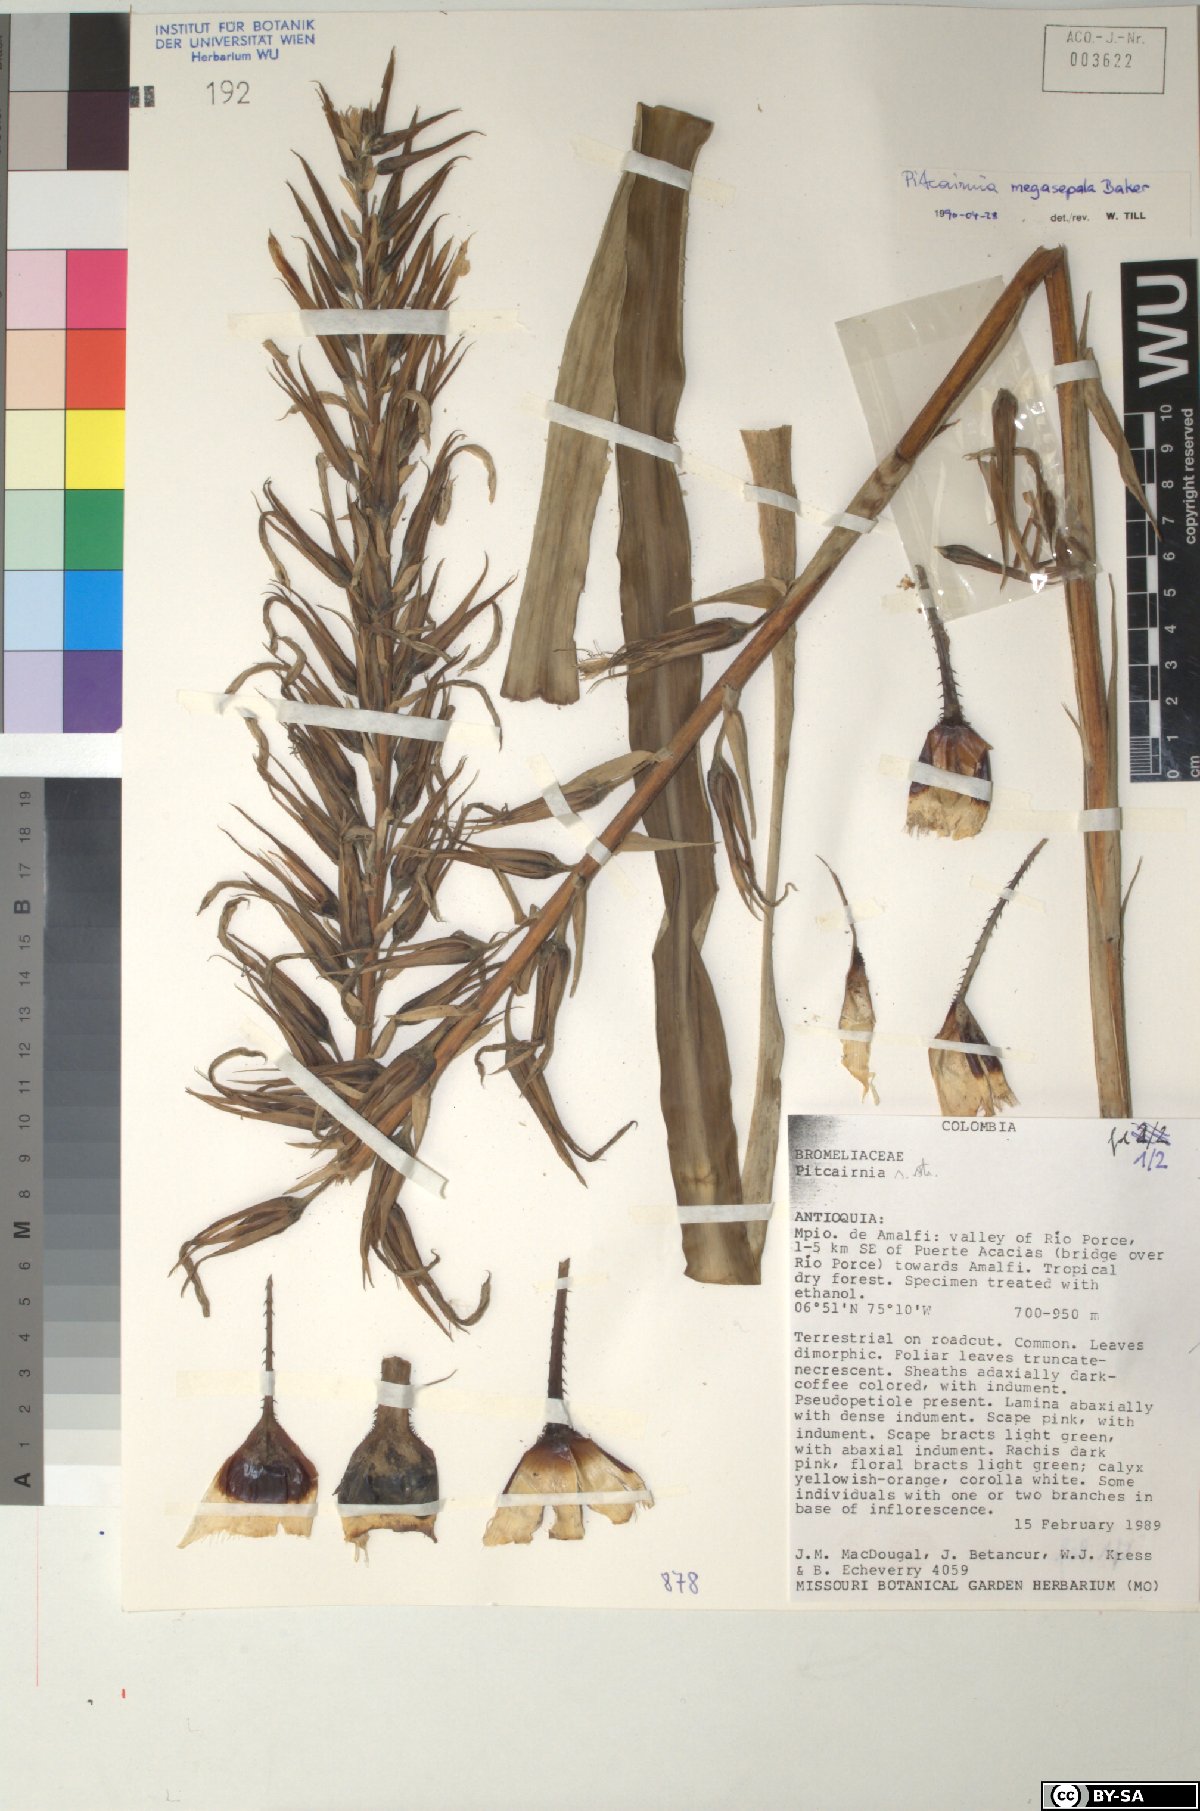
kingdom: Plantae
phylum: Tracheophyta
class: Liliopsida
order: Poales
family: Bromeliaceae
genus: Pitcairnia
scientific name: Pitcairnia megasepala
